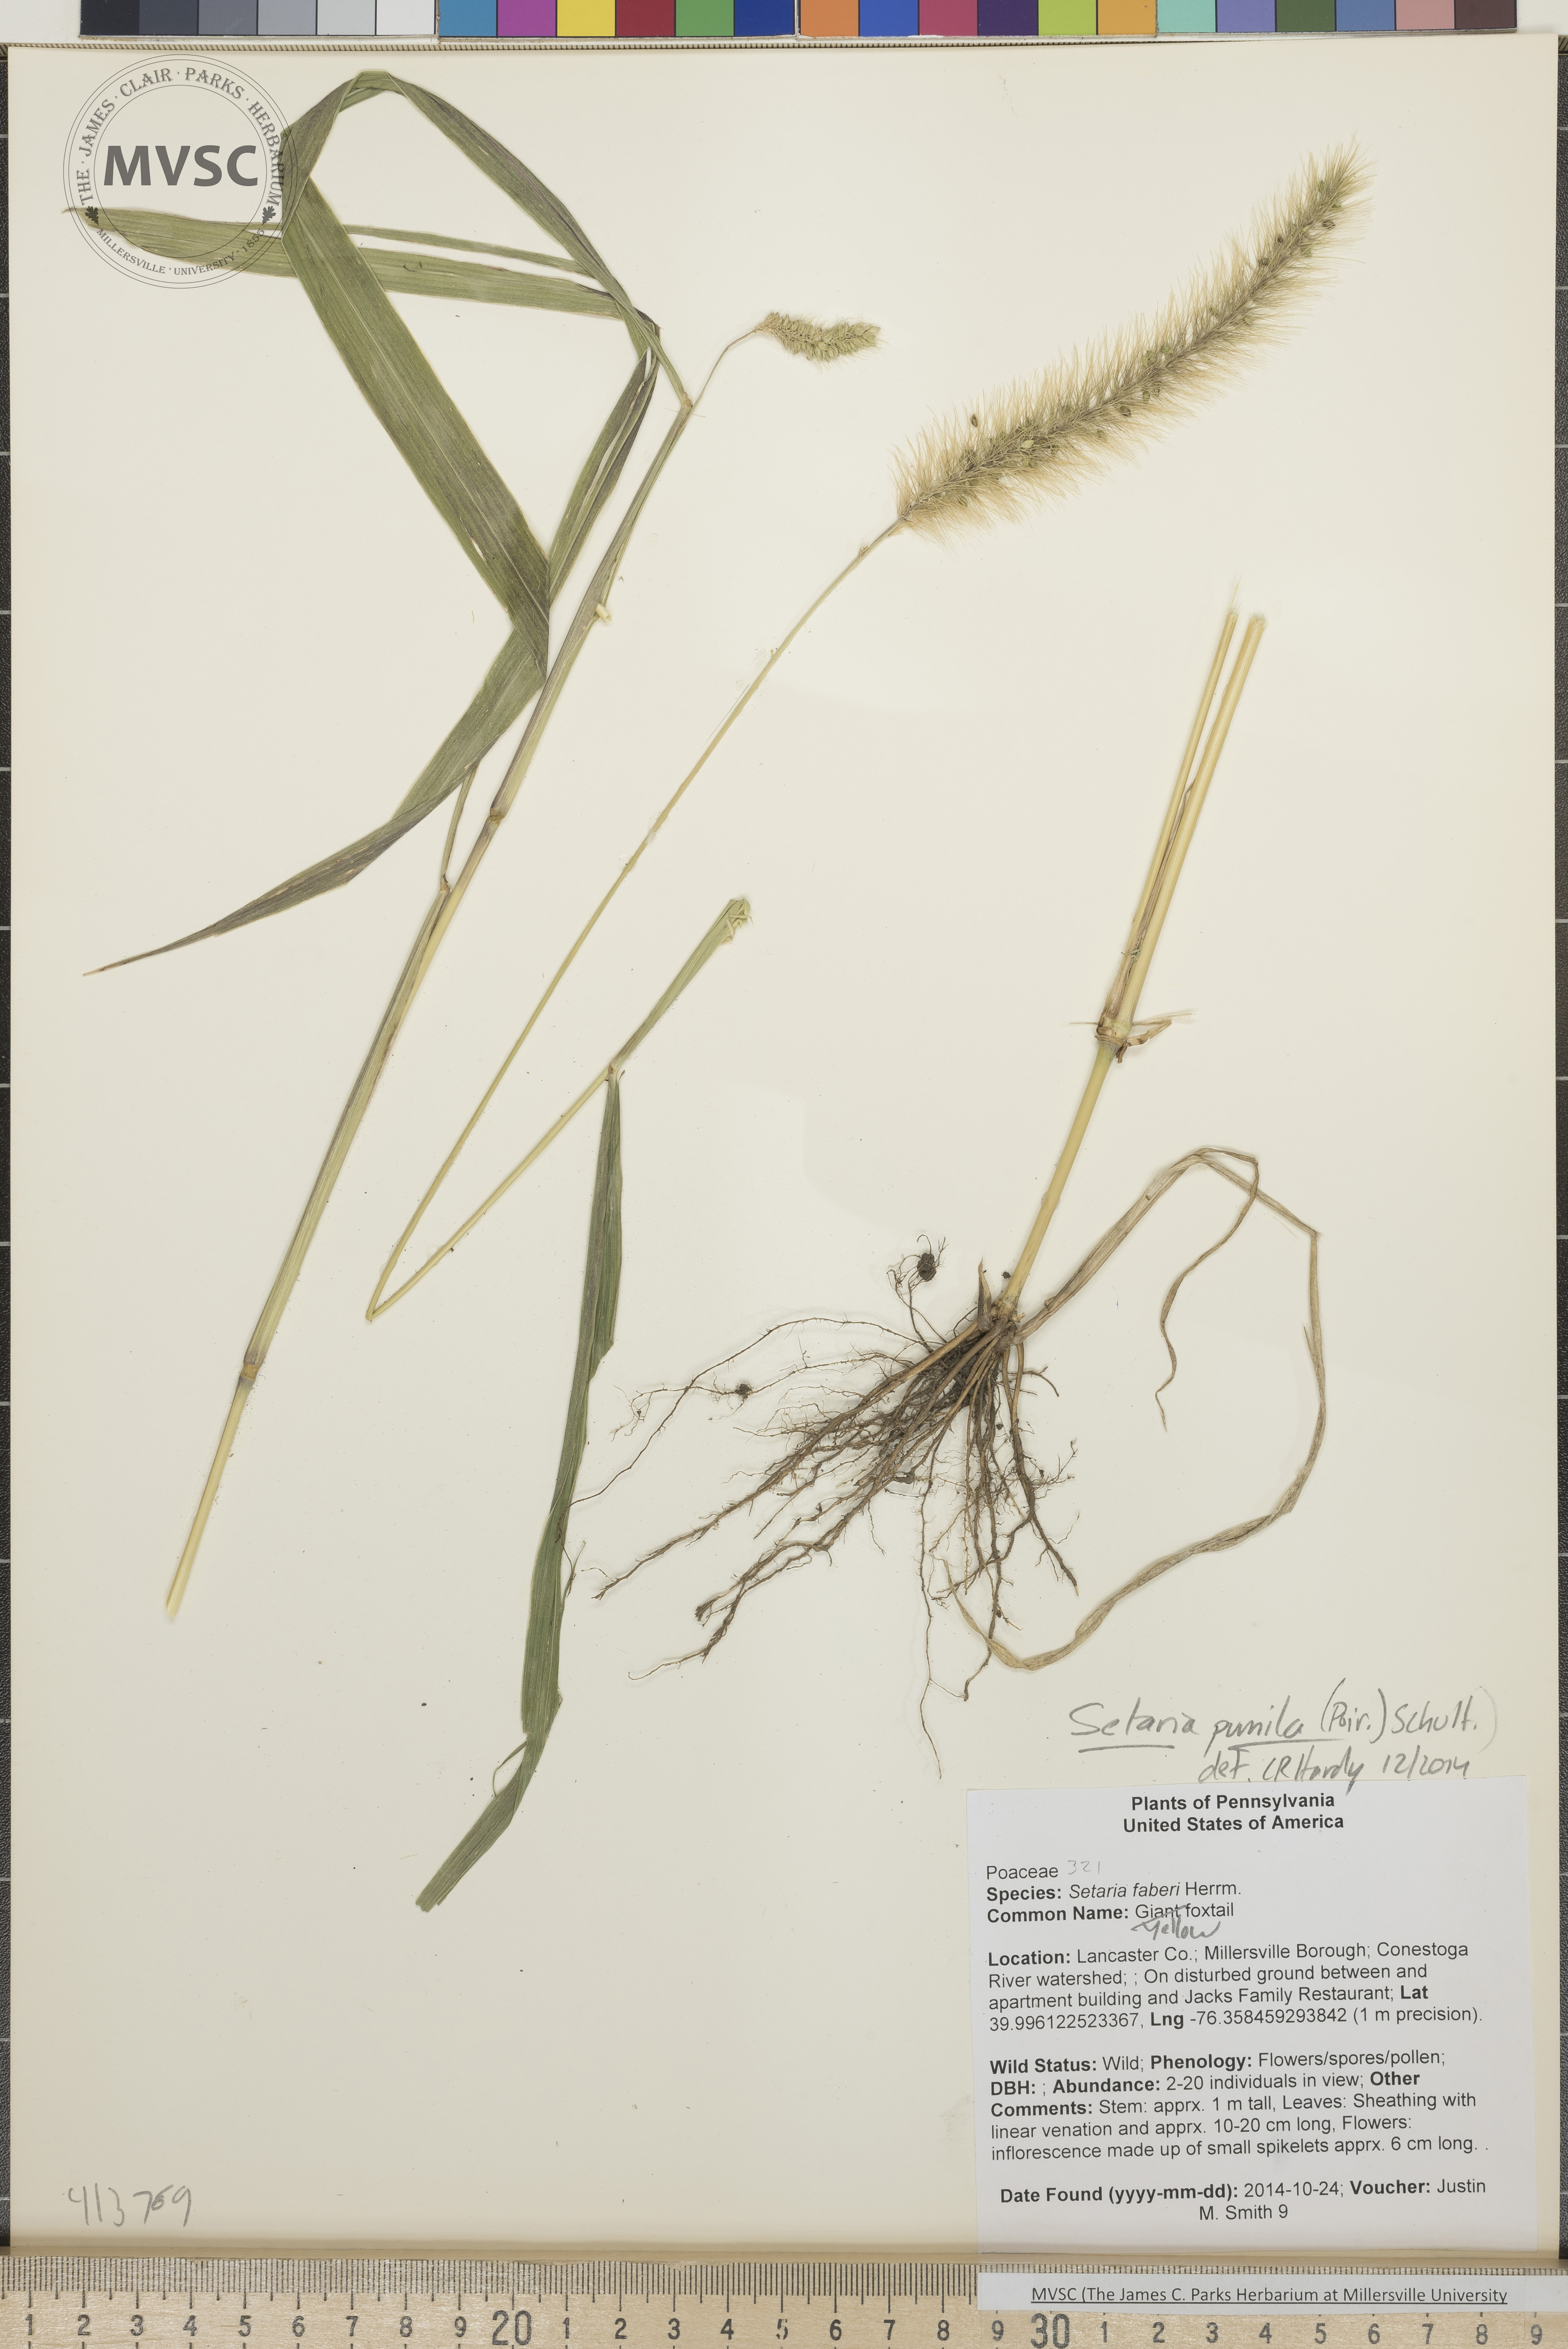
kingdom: Plantae
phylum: Tracheophyta
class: Liliopsida
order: Poales
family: Poaceae
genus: Setaria
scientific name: Setaria pumila
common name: yellow foxtail
